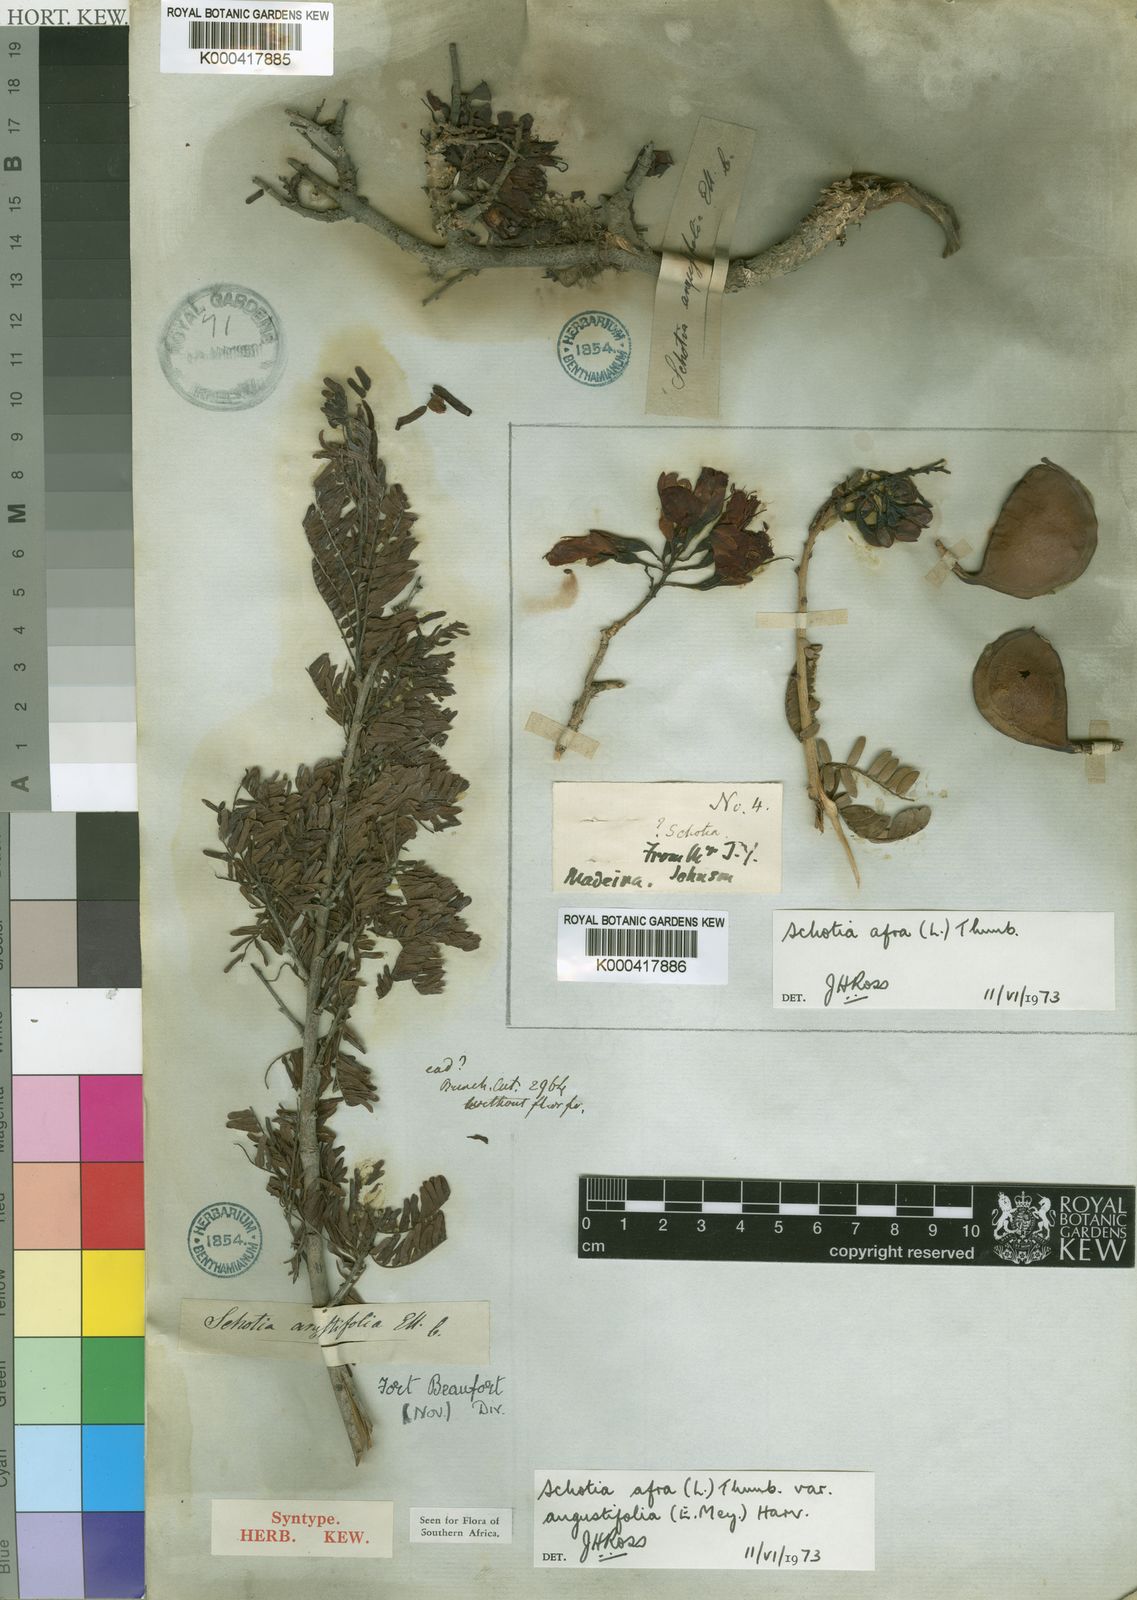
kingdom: Plantae
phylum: Tracheophyta
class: Magnoliopsida
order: Fabales
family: Fabaceae
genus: Schotia
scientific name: Schotia afra
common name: Hottentot's bean
